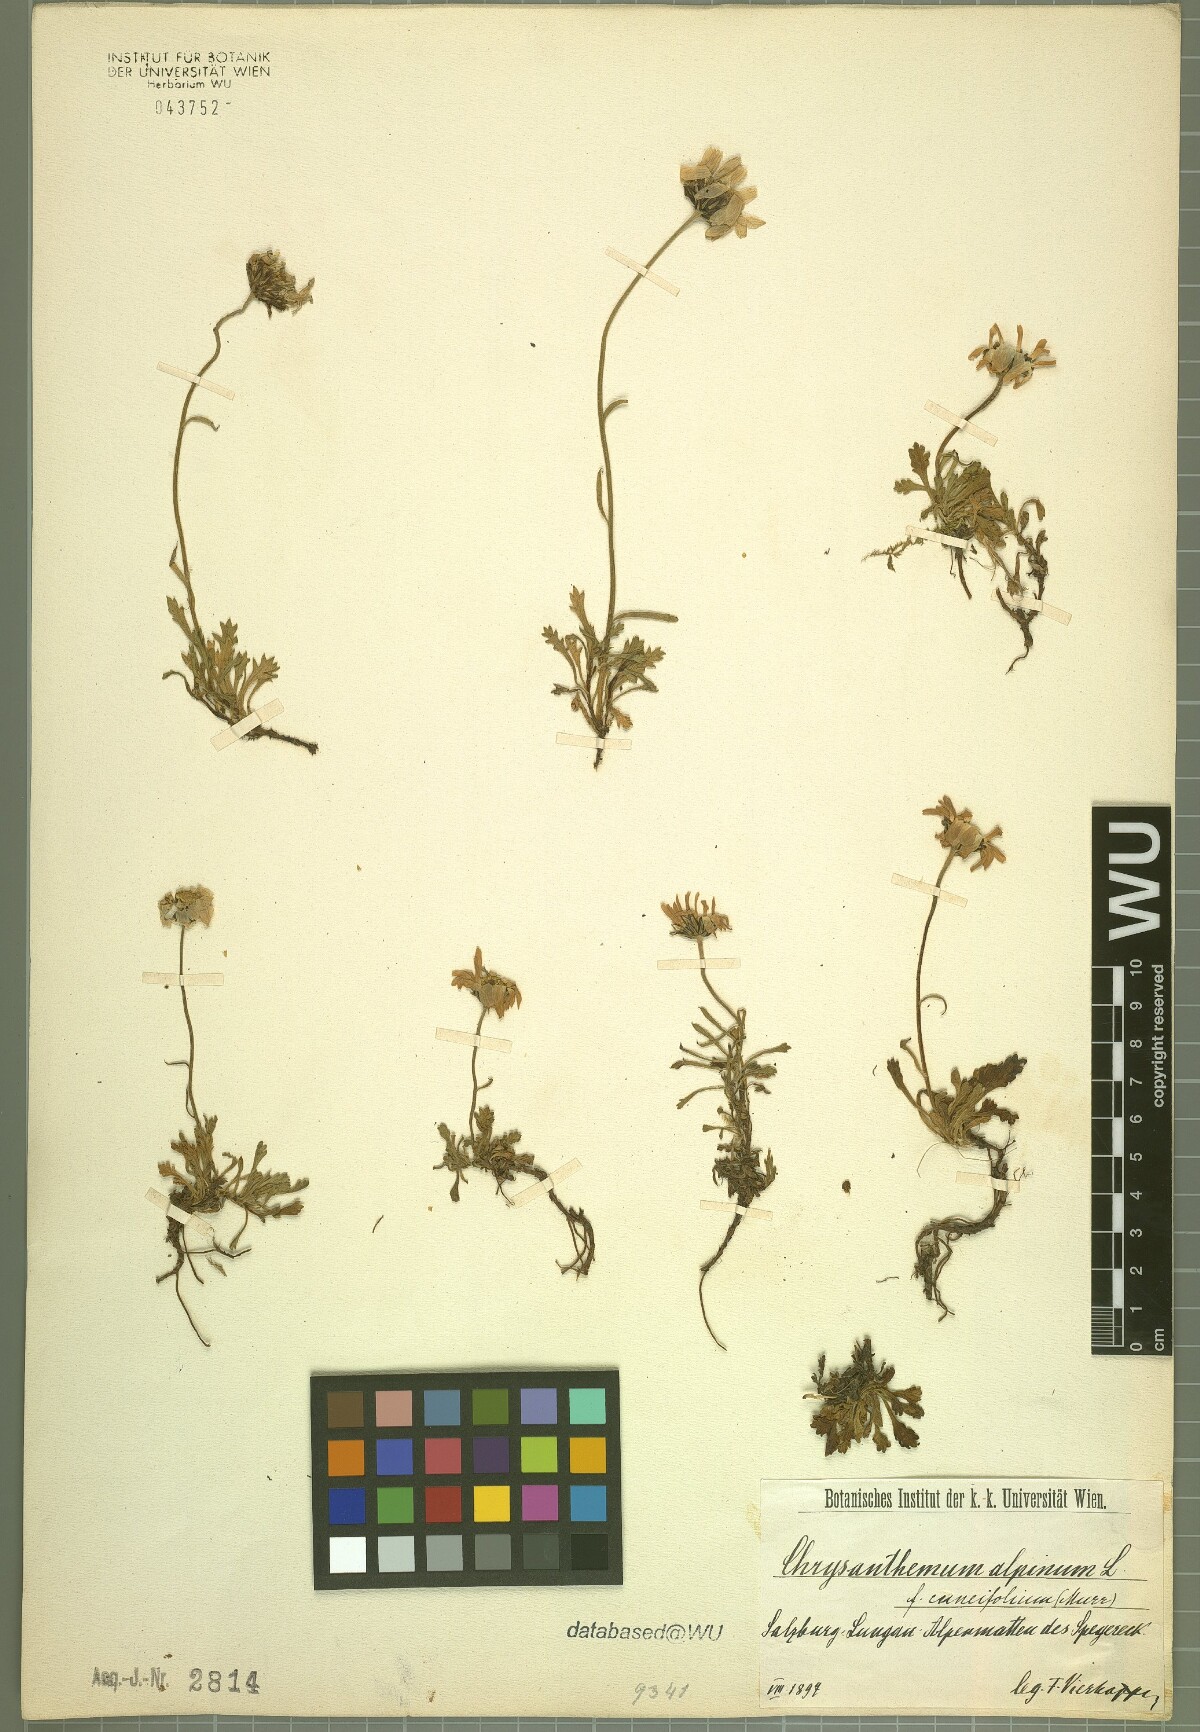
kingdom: Plantae
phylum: Tracheophyta
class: Magnoliopsida
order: Asterales
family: Asteraceae
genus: Leucanthemopsis
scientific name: Leucanthemopsis alpina
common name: Alpine moon daisy
